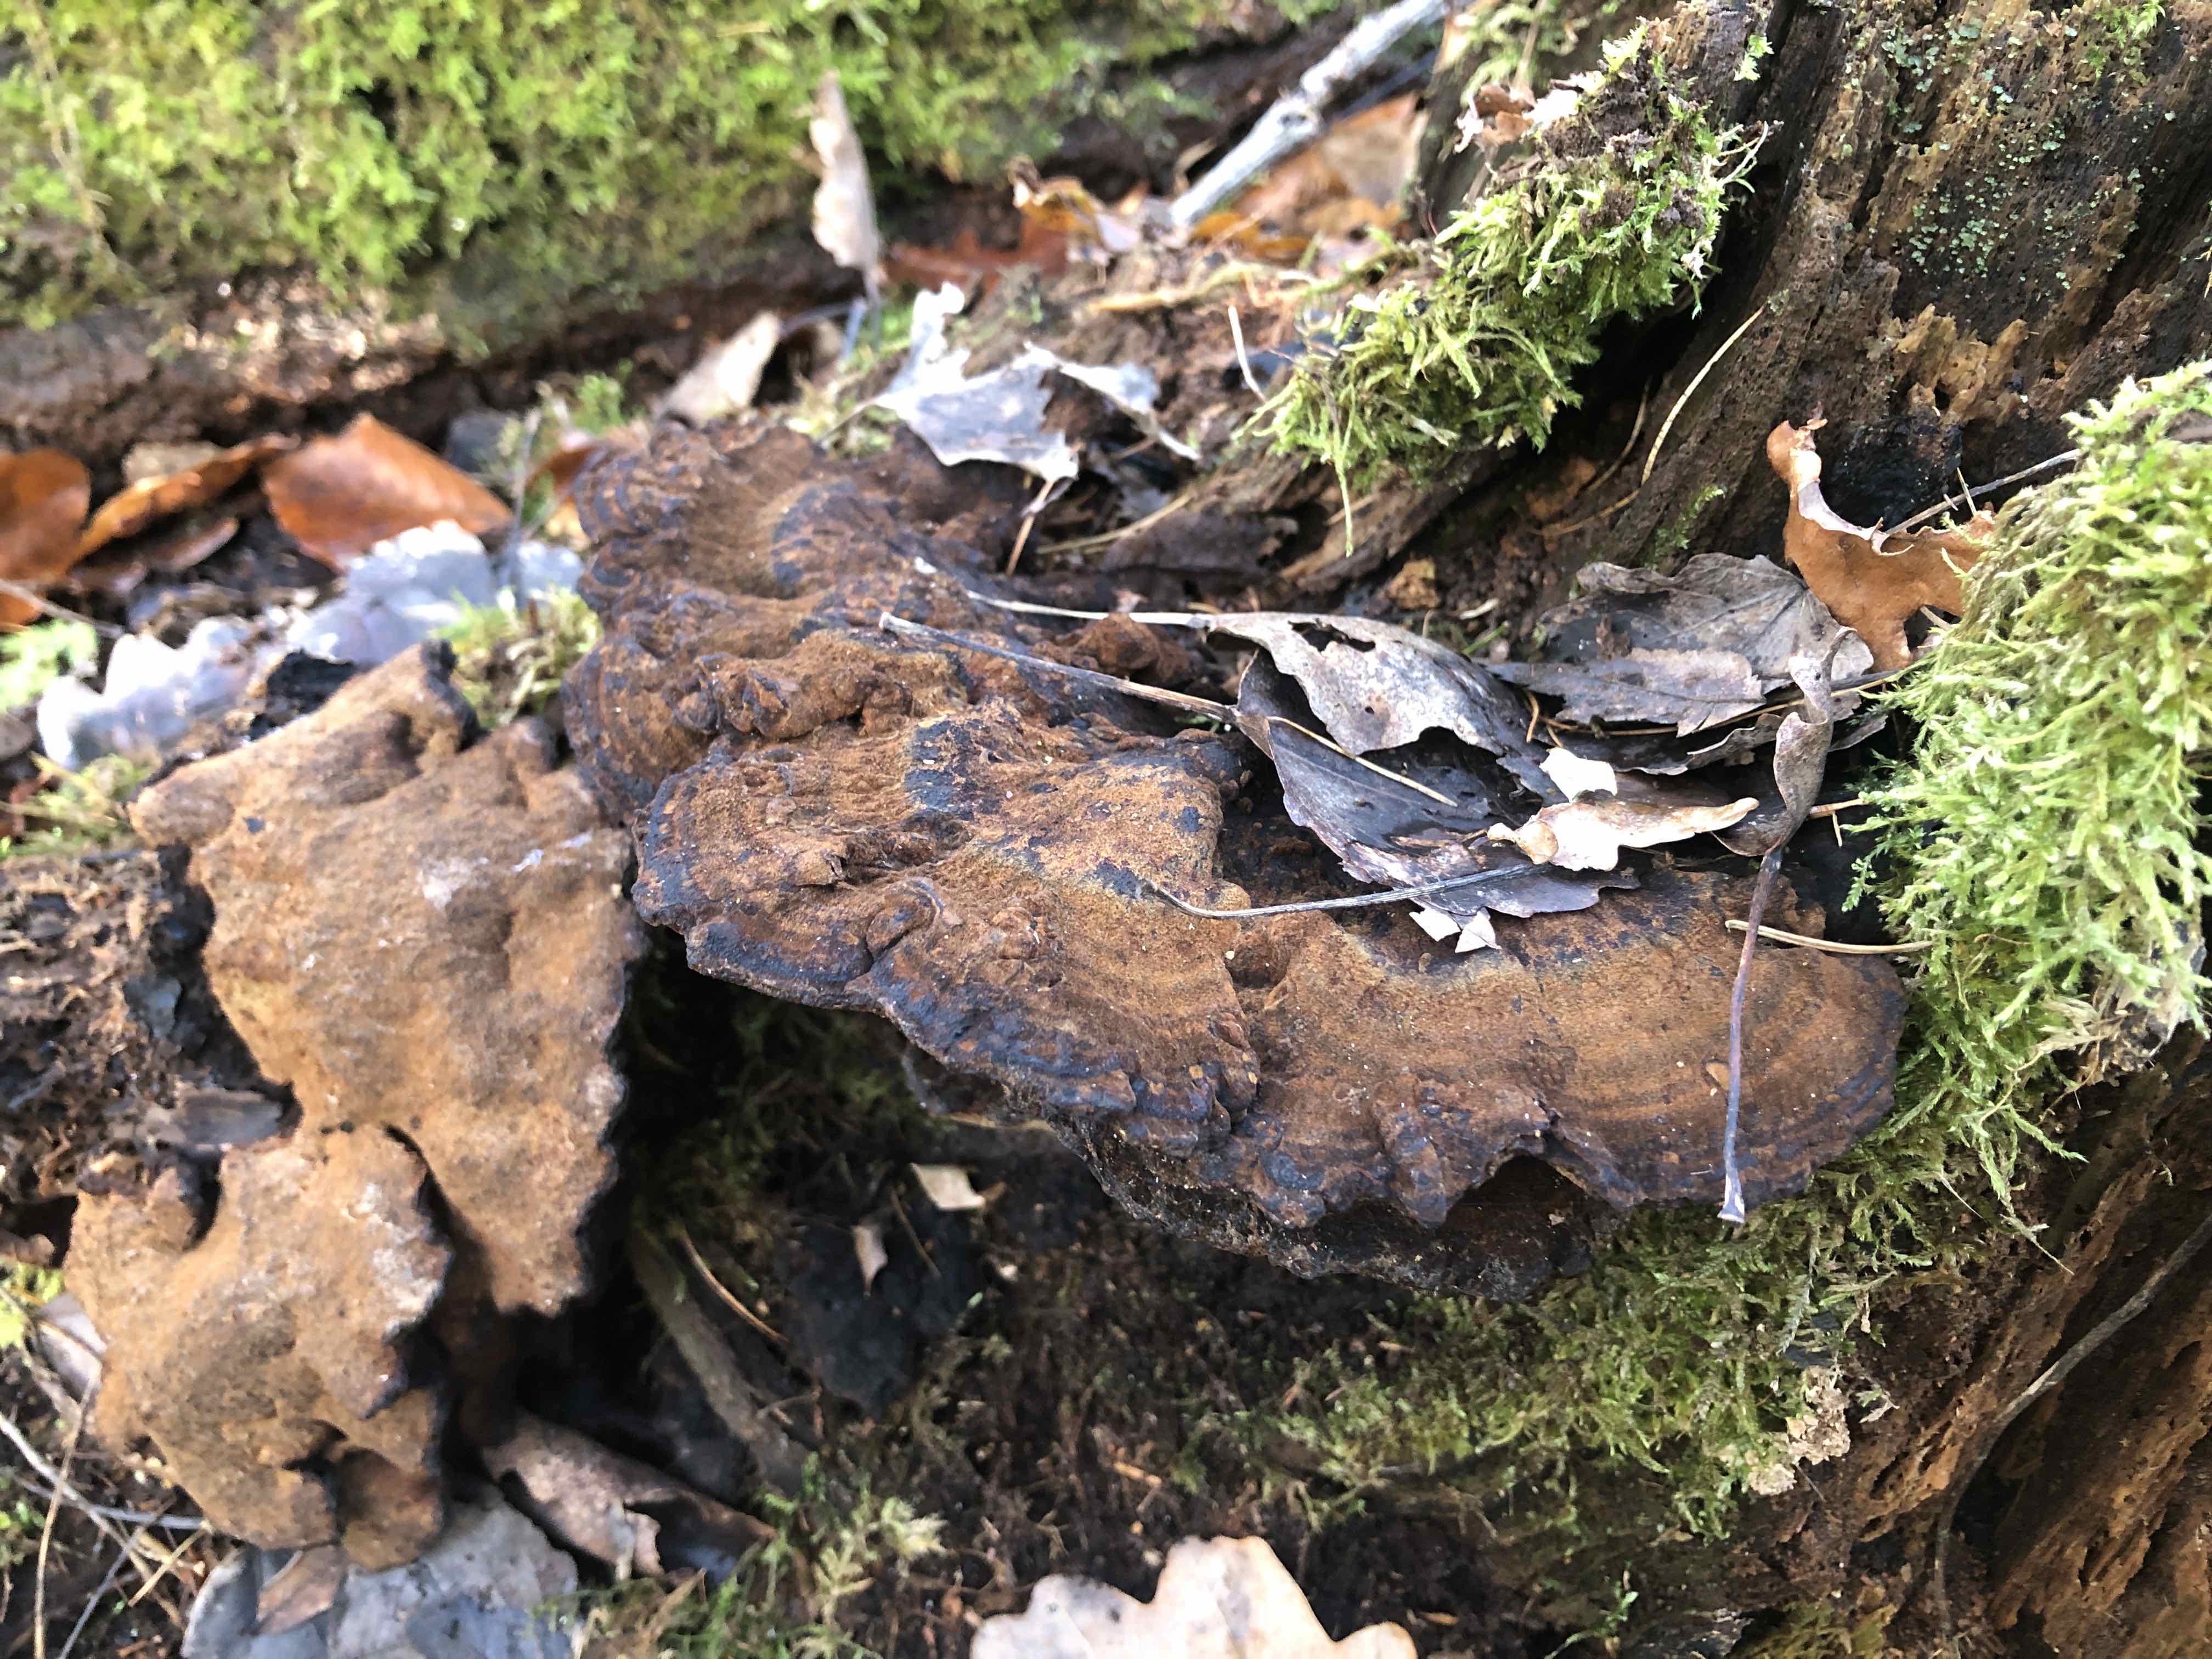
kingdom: Fungi
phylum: Basidiomycota
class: Agaricomycetes
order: Polyporales
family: Ischnodermataceae
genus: Ischnoderma
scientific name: Ischnoderma benzoinum
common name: gran-tjæreporesvamp
